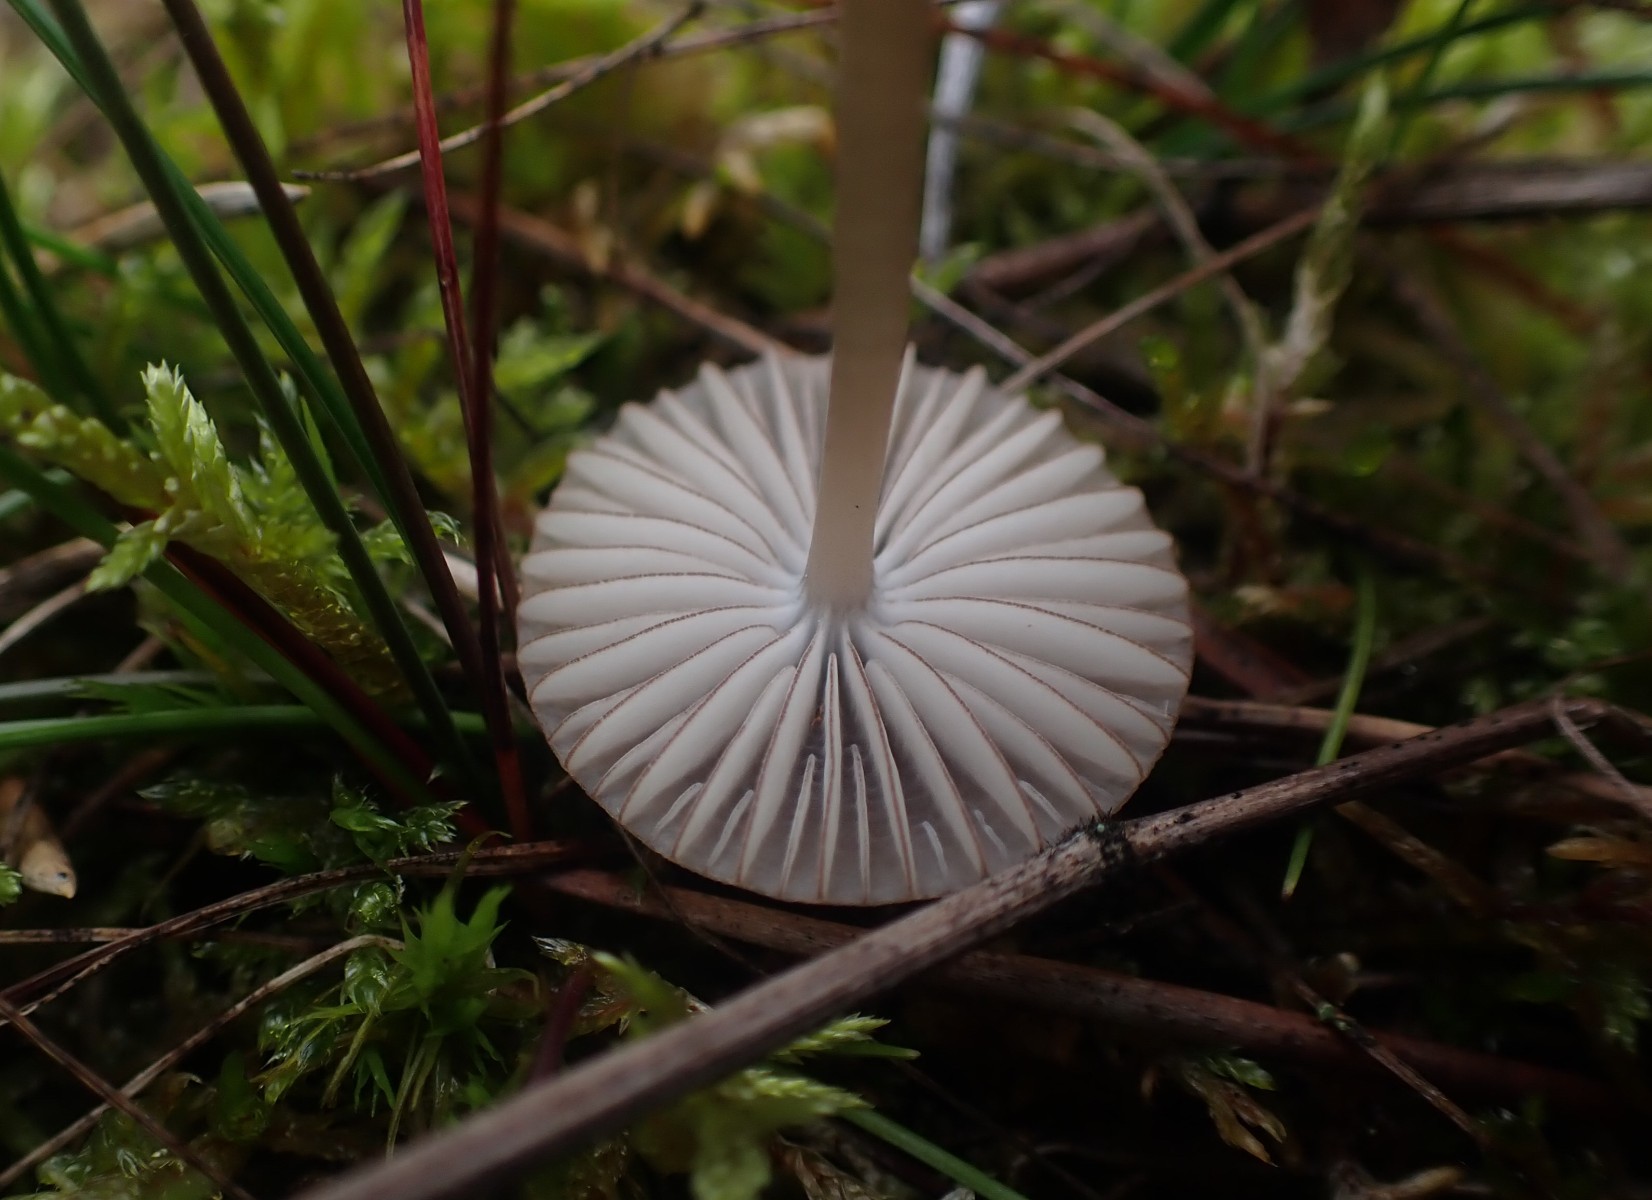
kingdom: Fungi
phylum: Basidiomycota
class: Agaricomycetes
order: Agaricales
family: Mycenaceae
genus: Mycena
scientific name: Mycena rubromarginata
